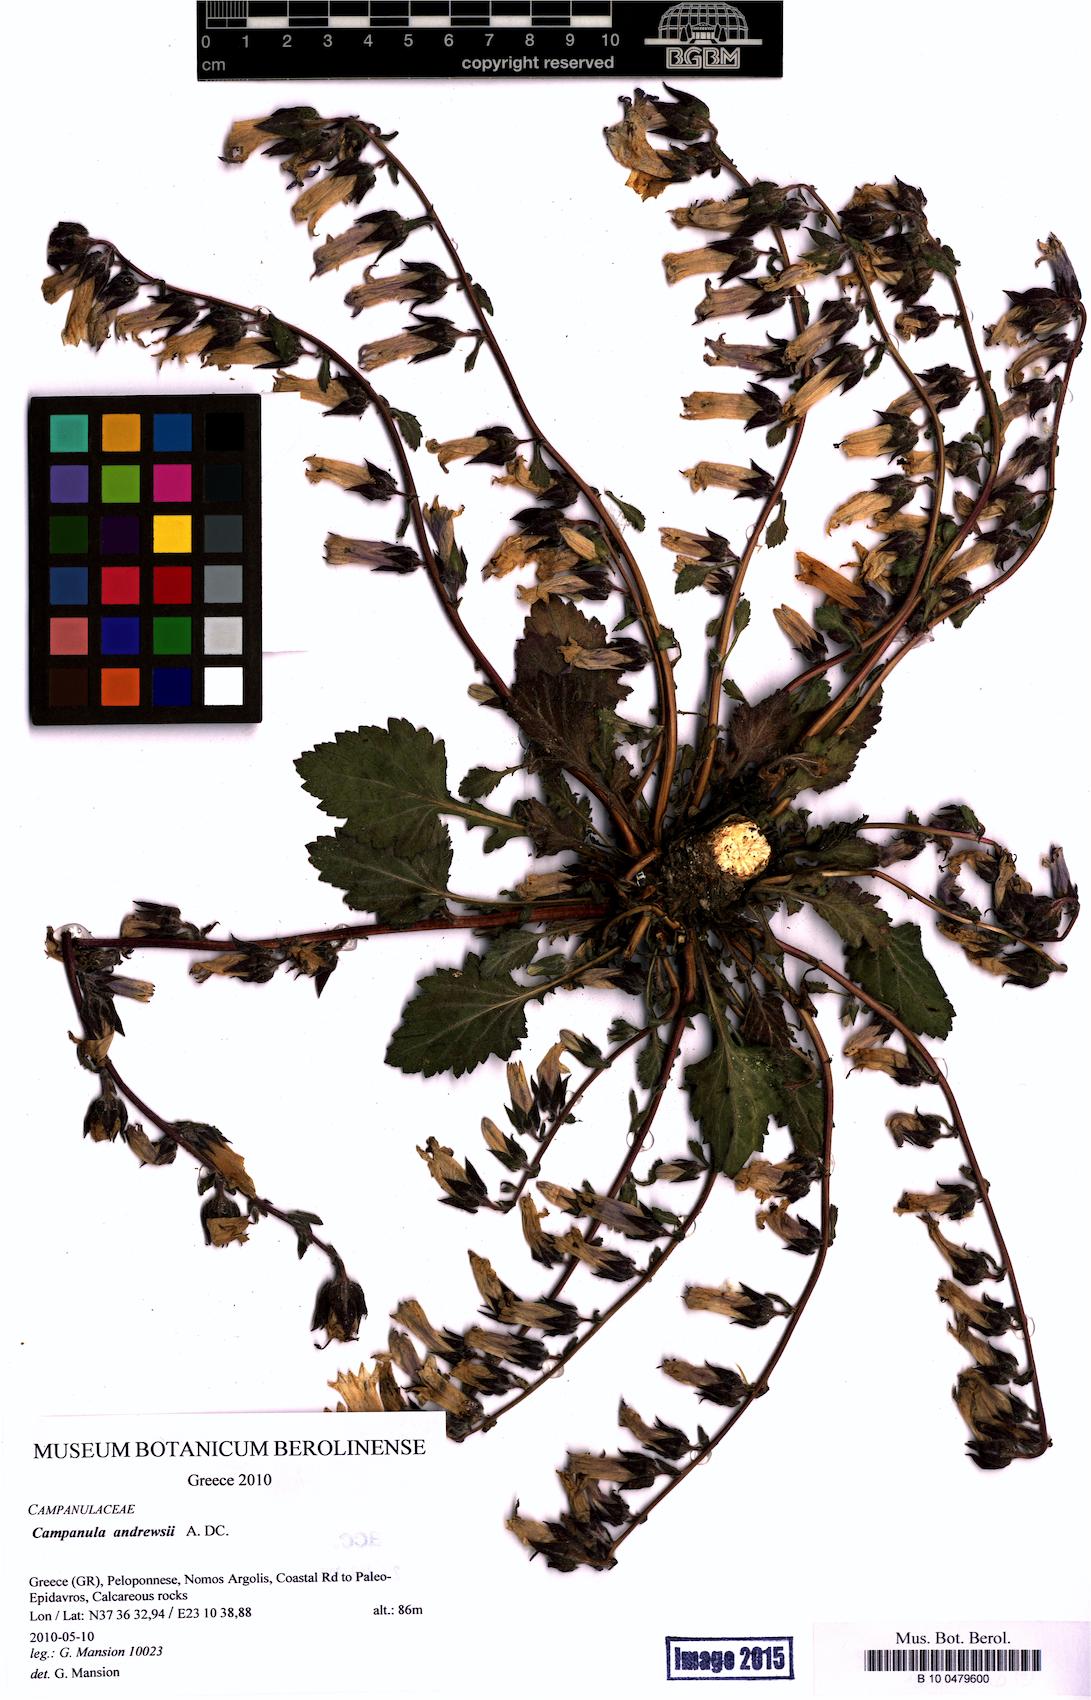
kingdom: Plantae
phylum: Tracheophyta
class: Magnoliopsida
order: Asterales
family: Campanulaceae
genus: Campanula
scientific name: Campanula andrewsii
